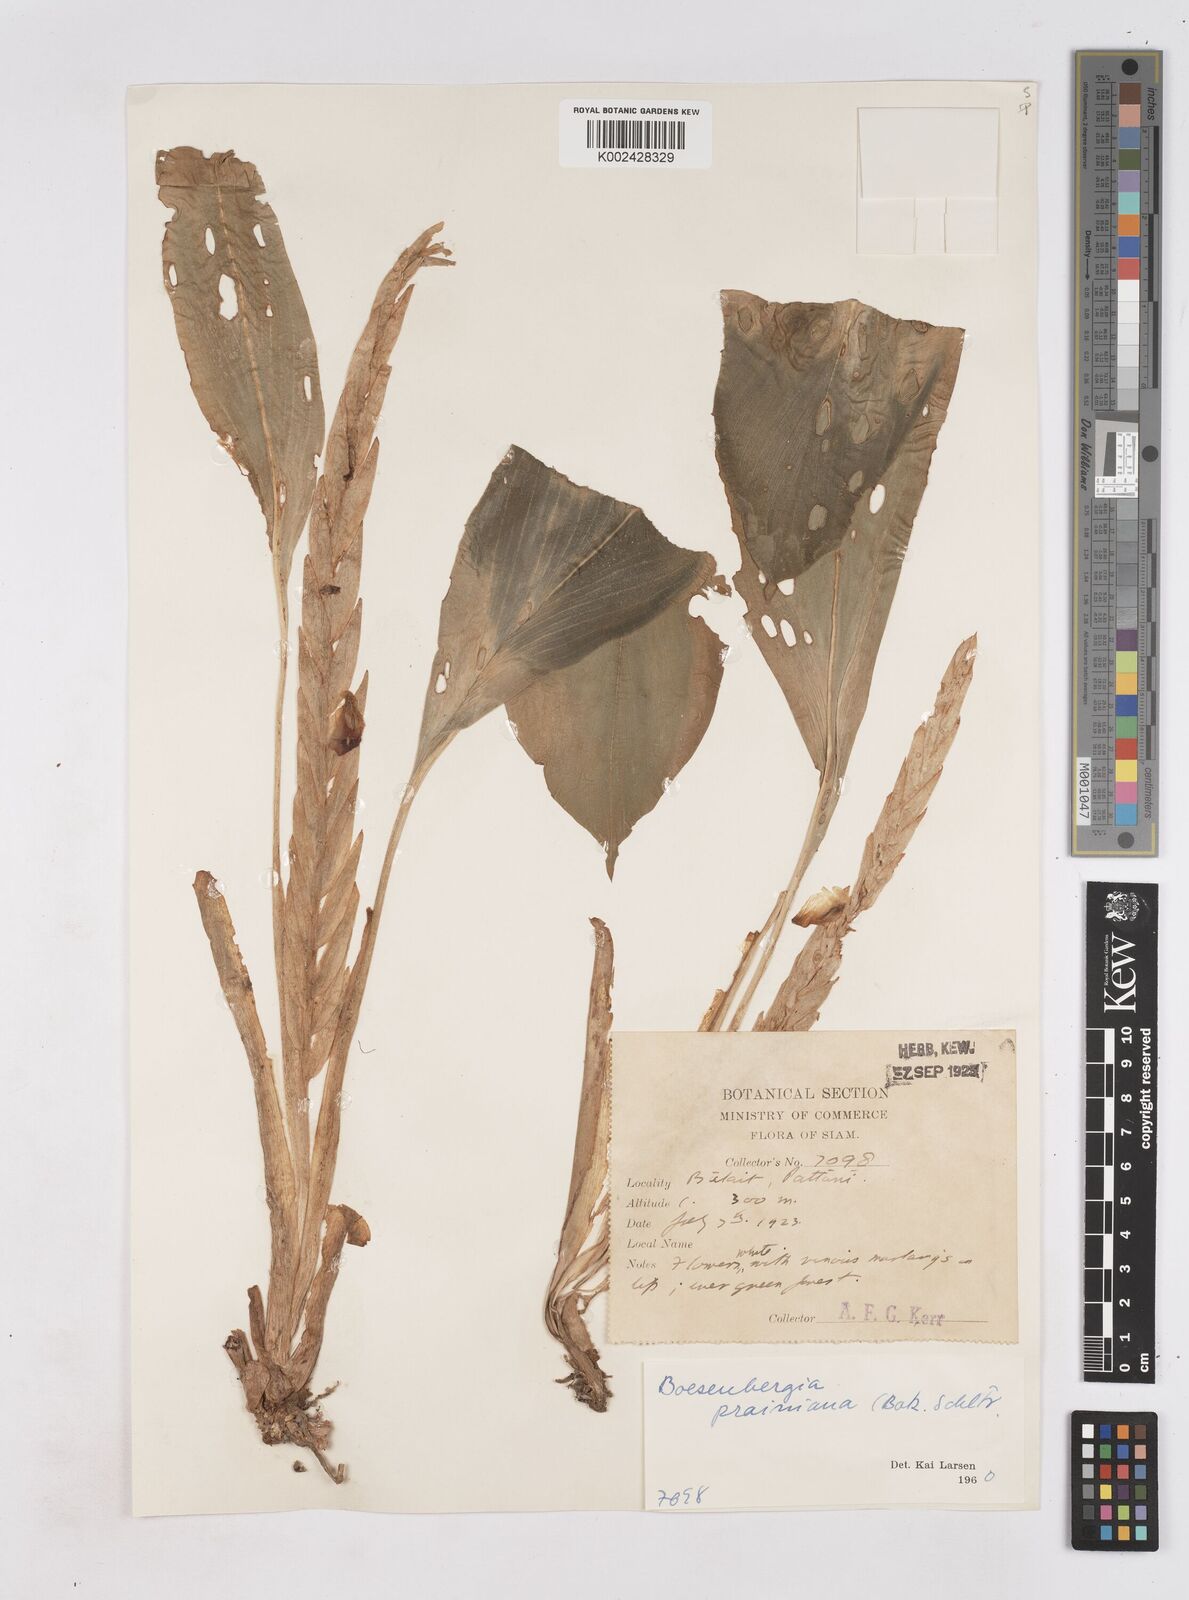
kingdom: Plantae
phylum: Tracheophyta
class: Liliopsida
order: Zingiberales
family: Zingiberaceae
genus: Boesenbergia
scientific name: Boesenbergia prainiana
